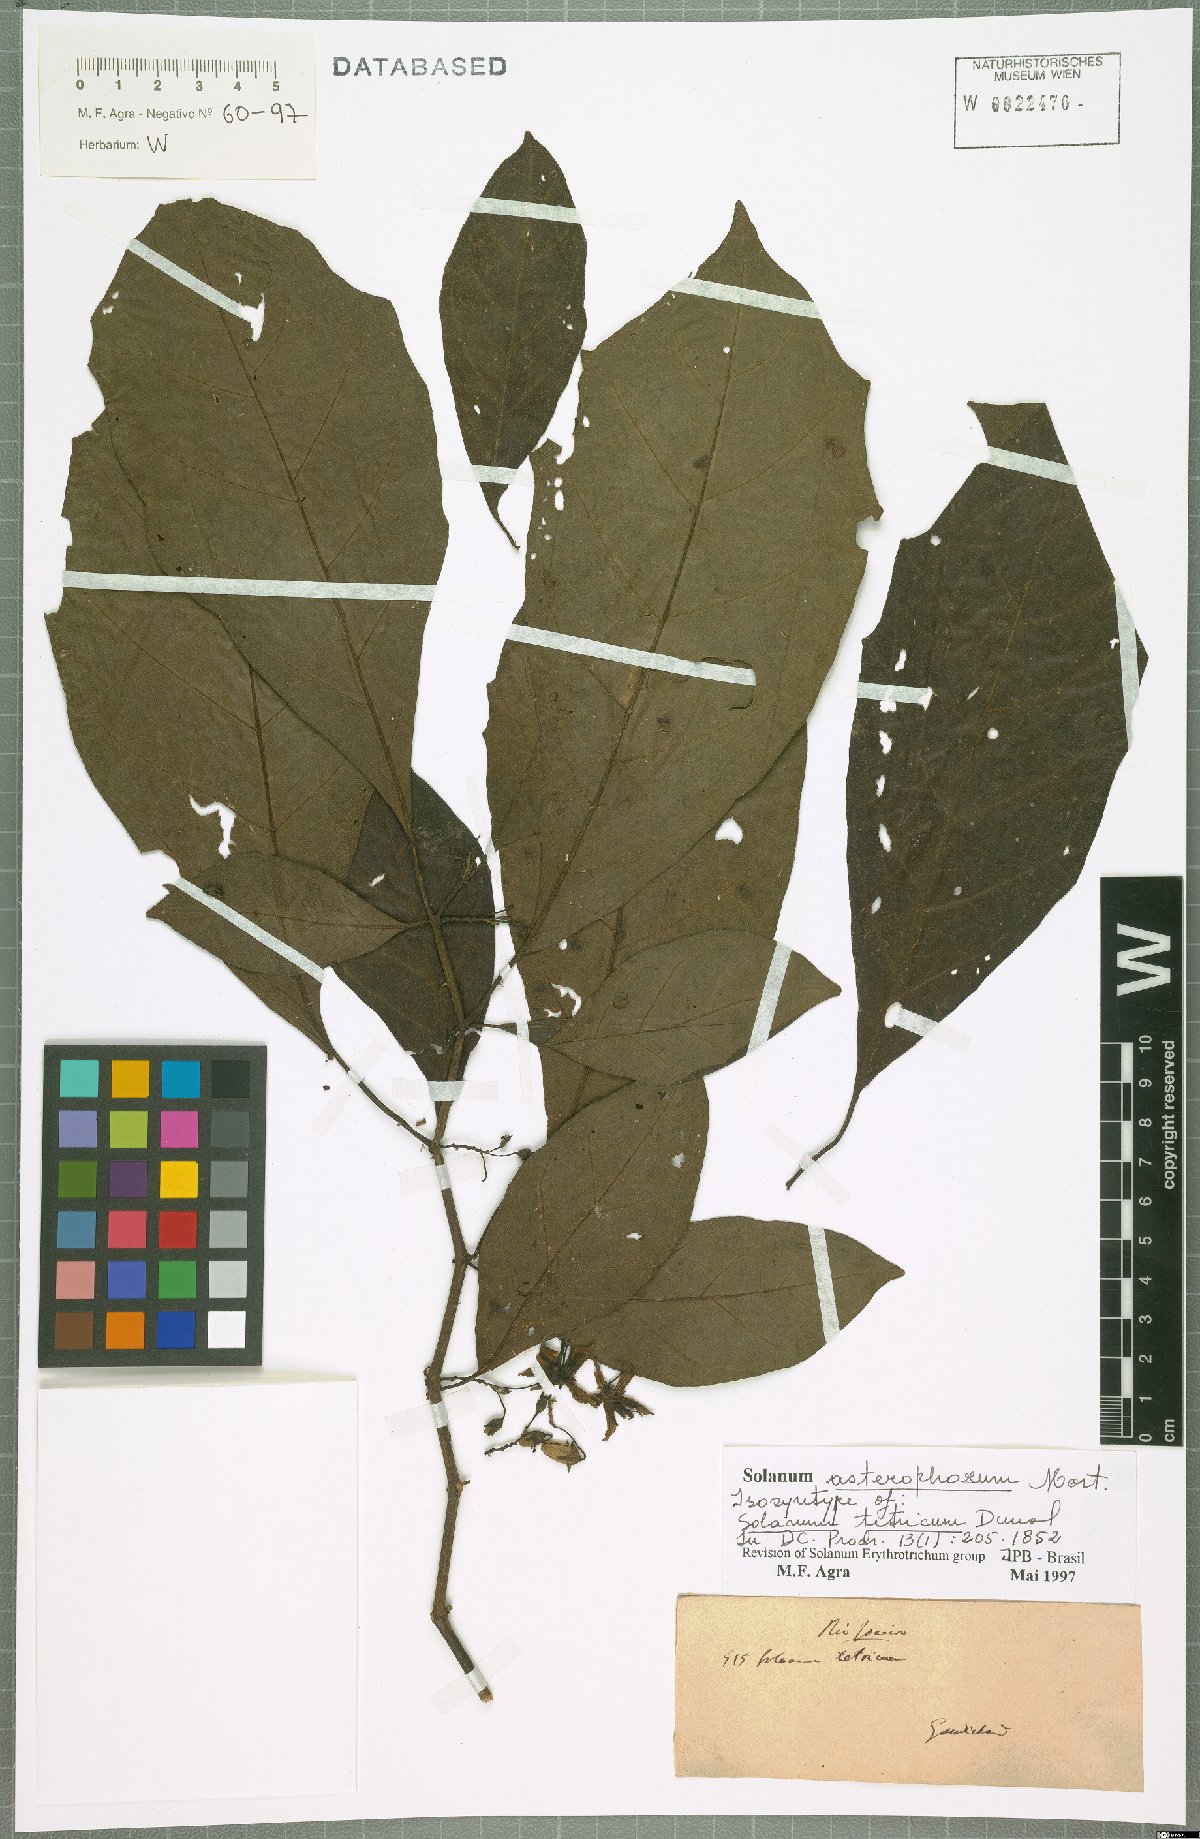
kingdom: Plantae
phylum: Tracheophyta
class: Magnoliopsida
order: Solanales
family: Solanaceae
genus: Solanum
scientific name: Solanum asterophorum
